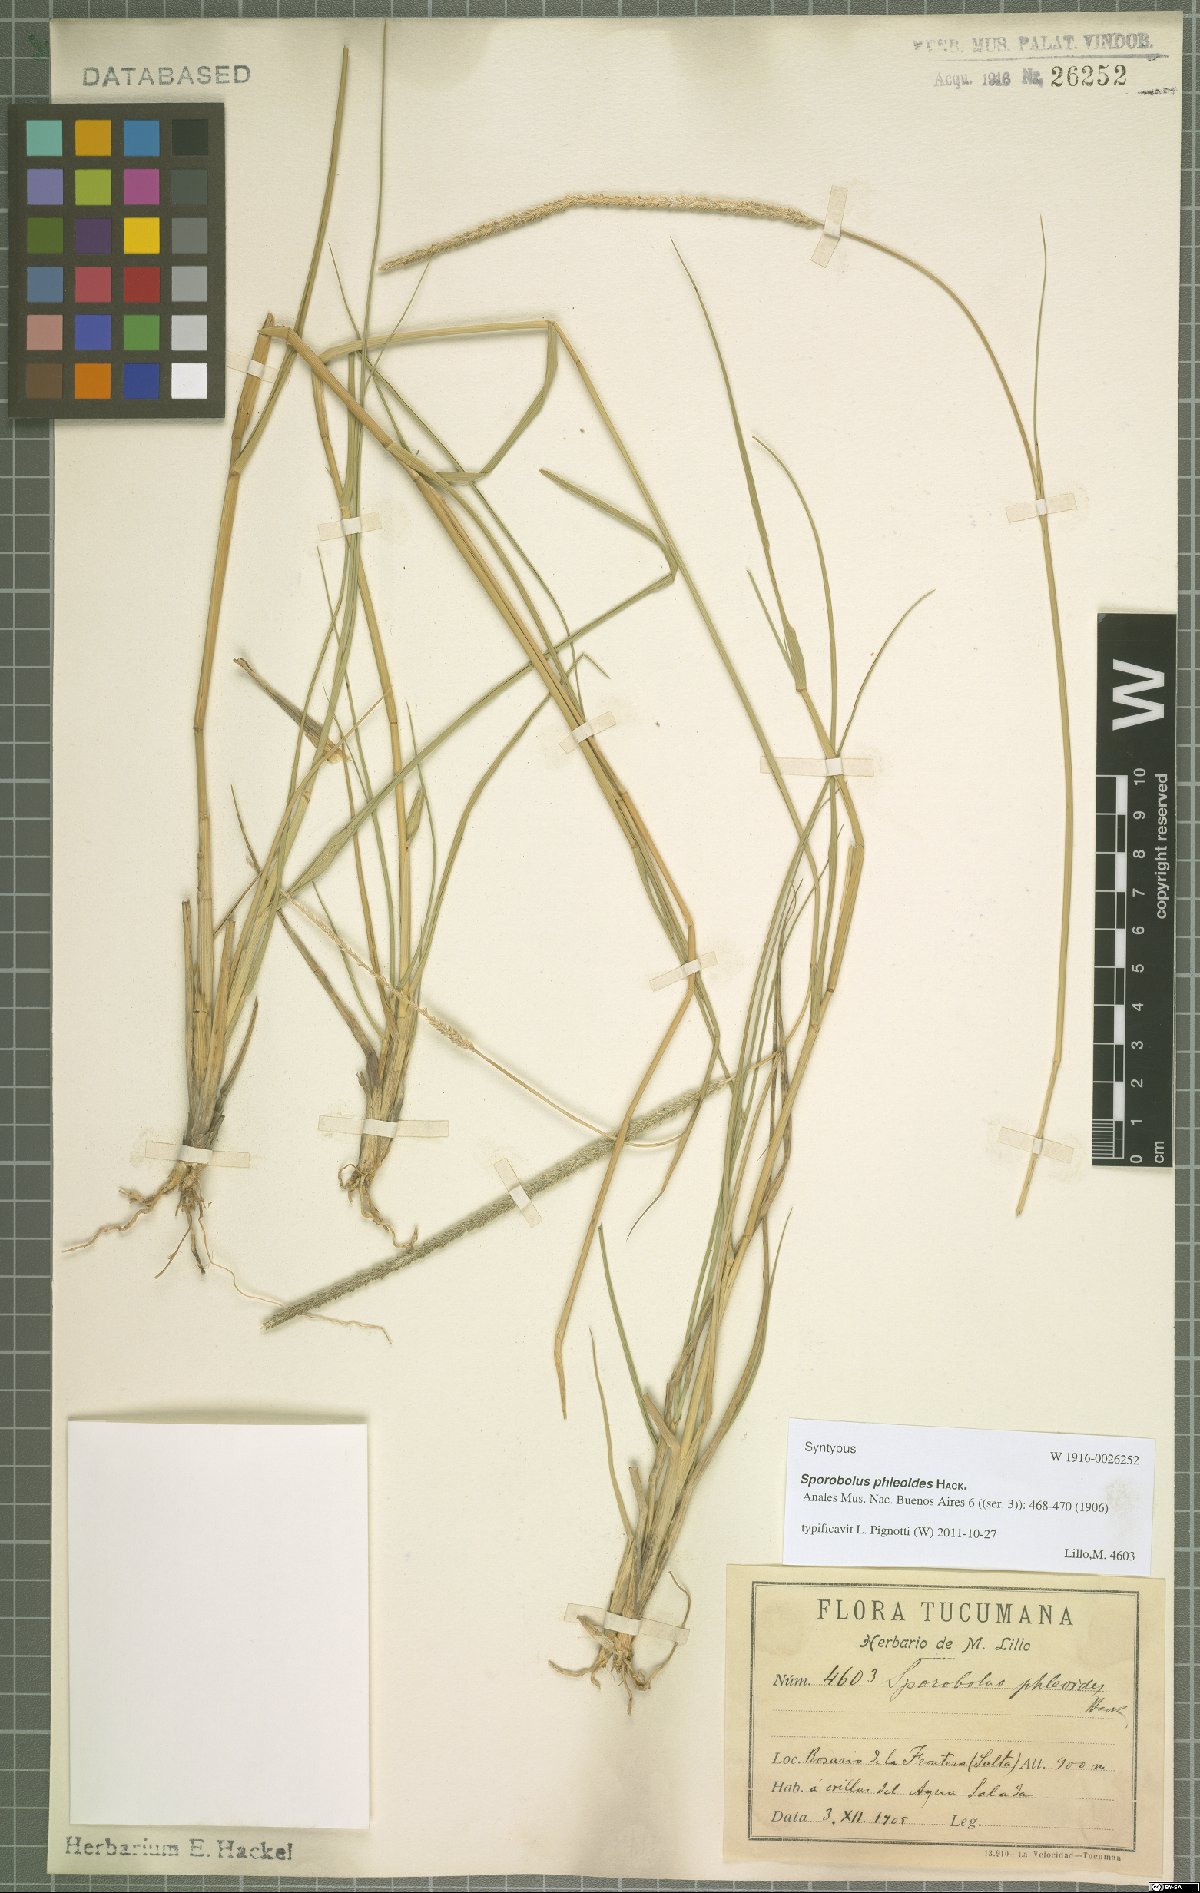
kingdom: Plantae
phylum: Tracheophyta
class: Liliopsida
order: Poales
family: Poaceae
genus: Sporobolus
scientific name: Sporobolus phleoides
